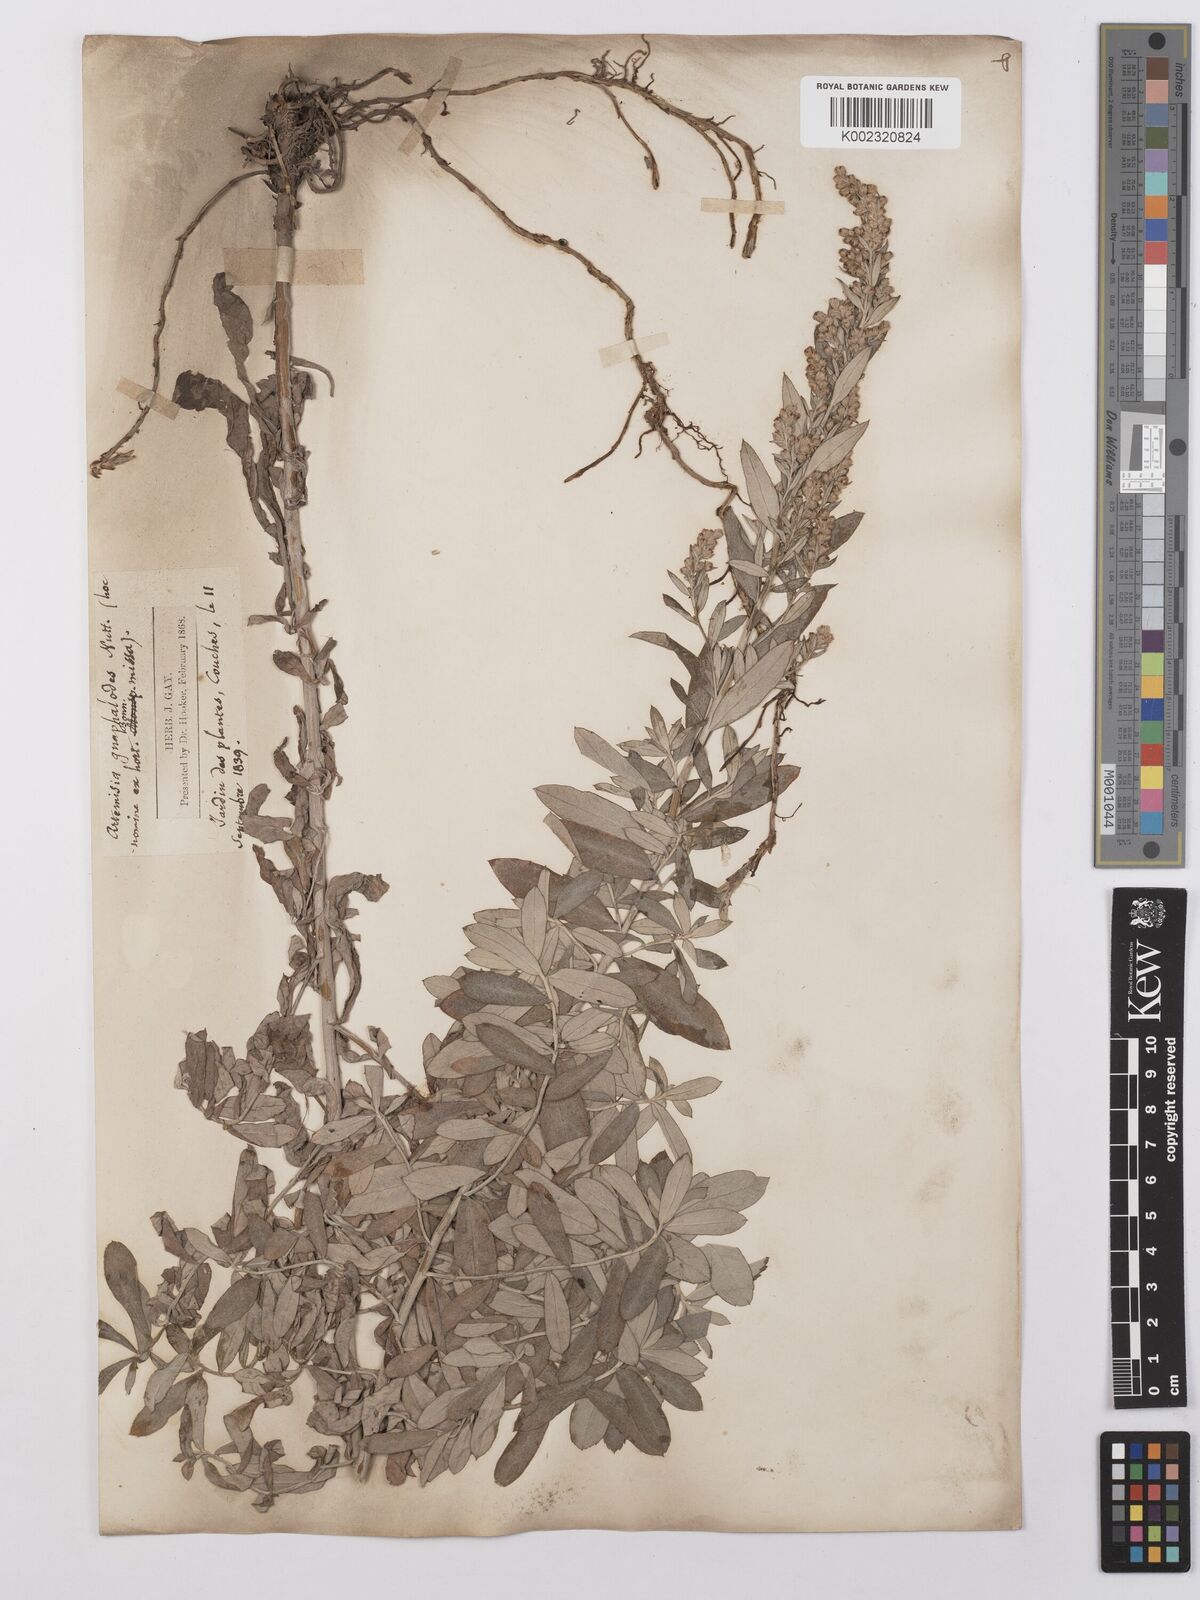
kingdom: Plantae
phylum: Tracheophyta
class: Magnoliopsida
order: Asterales
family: Asteraceae
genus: Artemisia
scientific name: Artemisia ludoviciana
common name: Western mugwort
